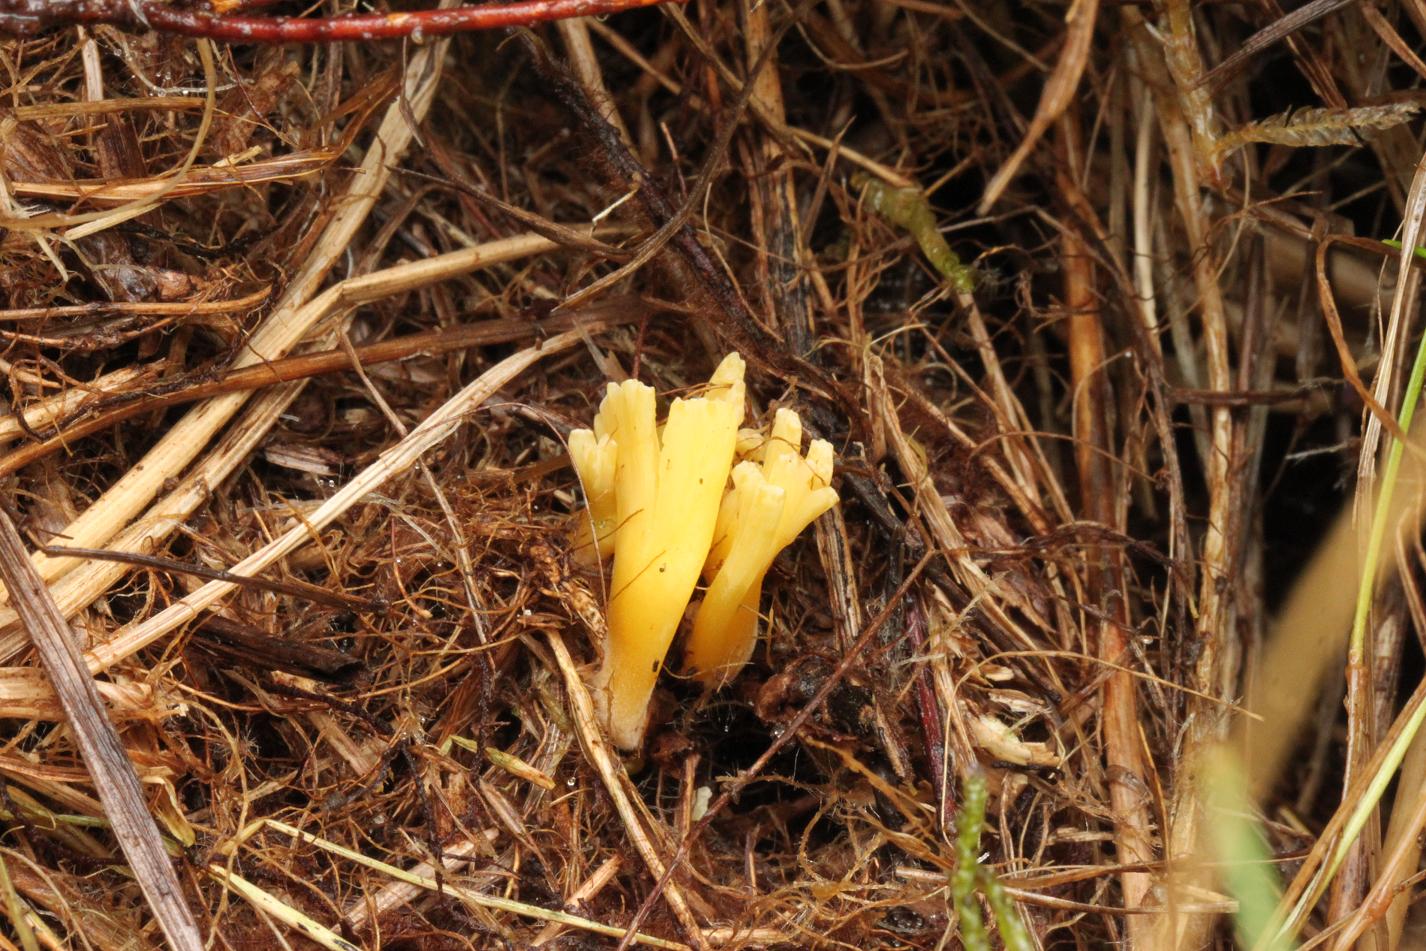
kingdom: Fungi
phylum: Basidiomycota
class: Agaricomycetes
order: Agaricales
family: Clavariaceae
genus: Clavulinopsis
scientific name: Clavulinopsis corniculata
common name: eng-køllesvamp
